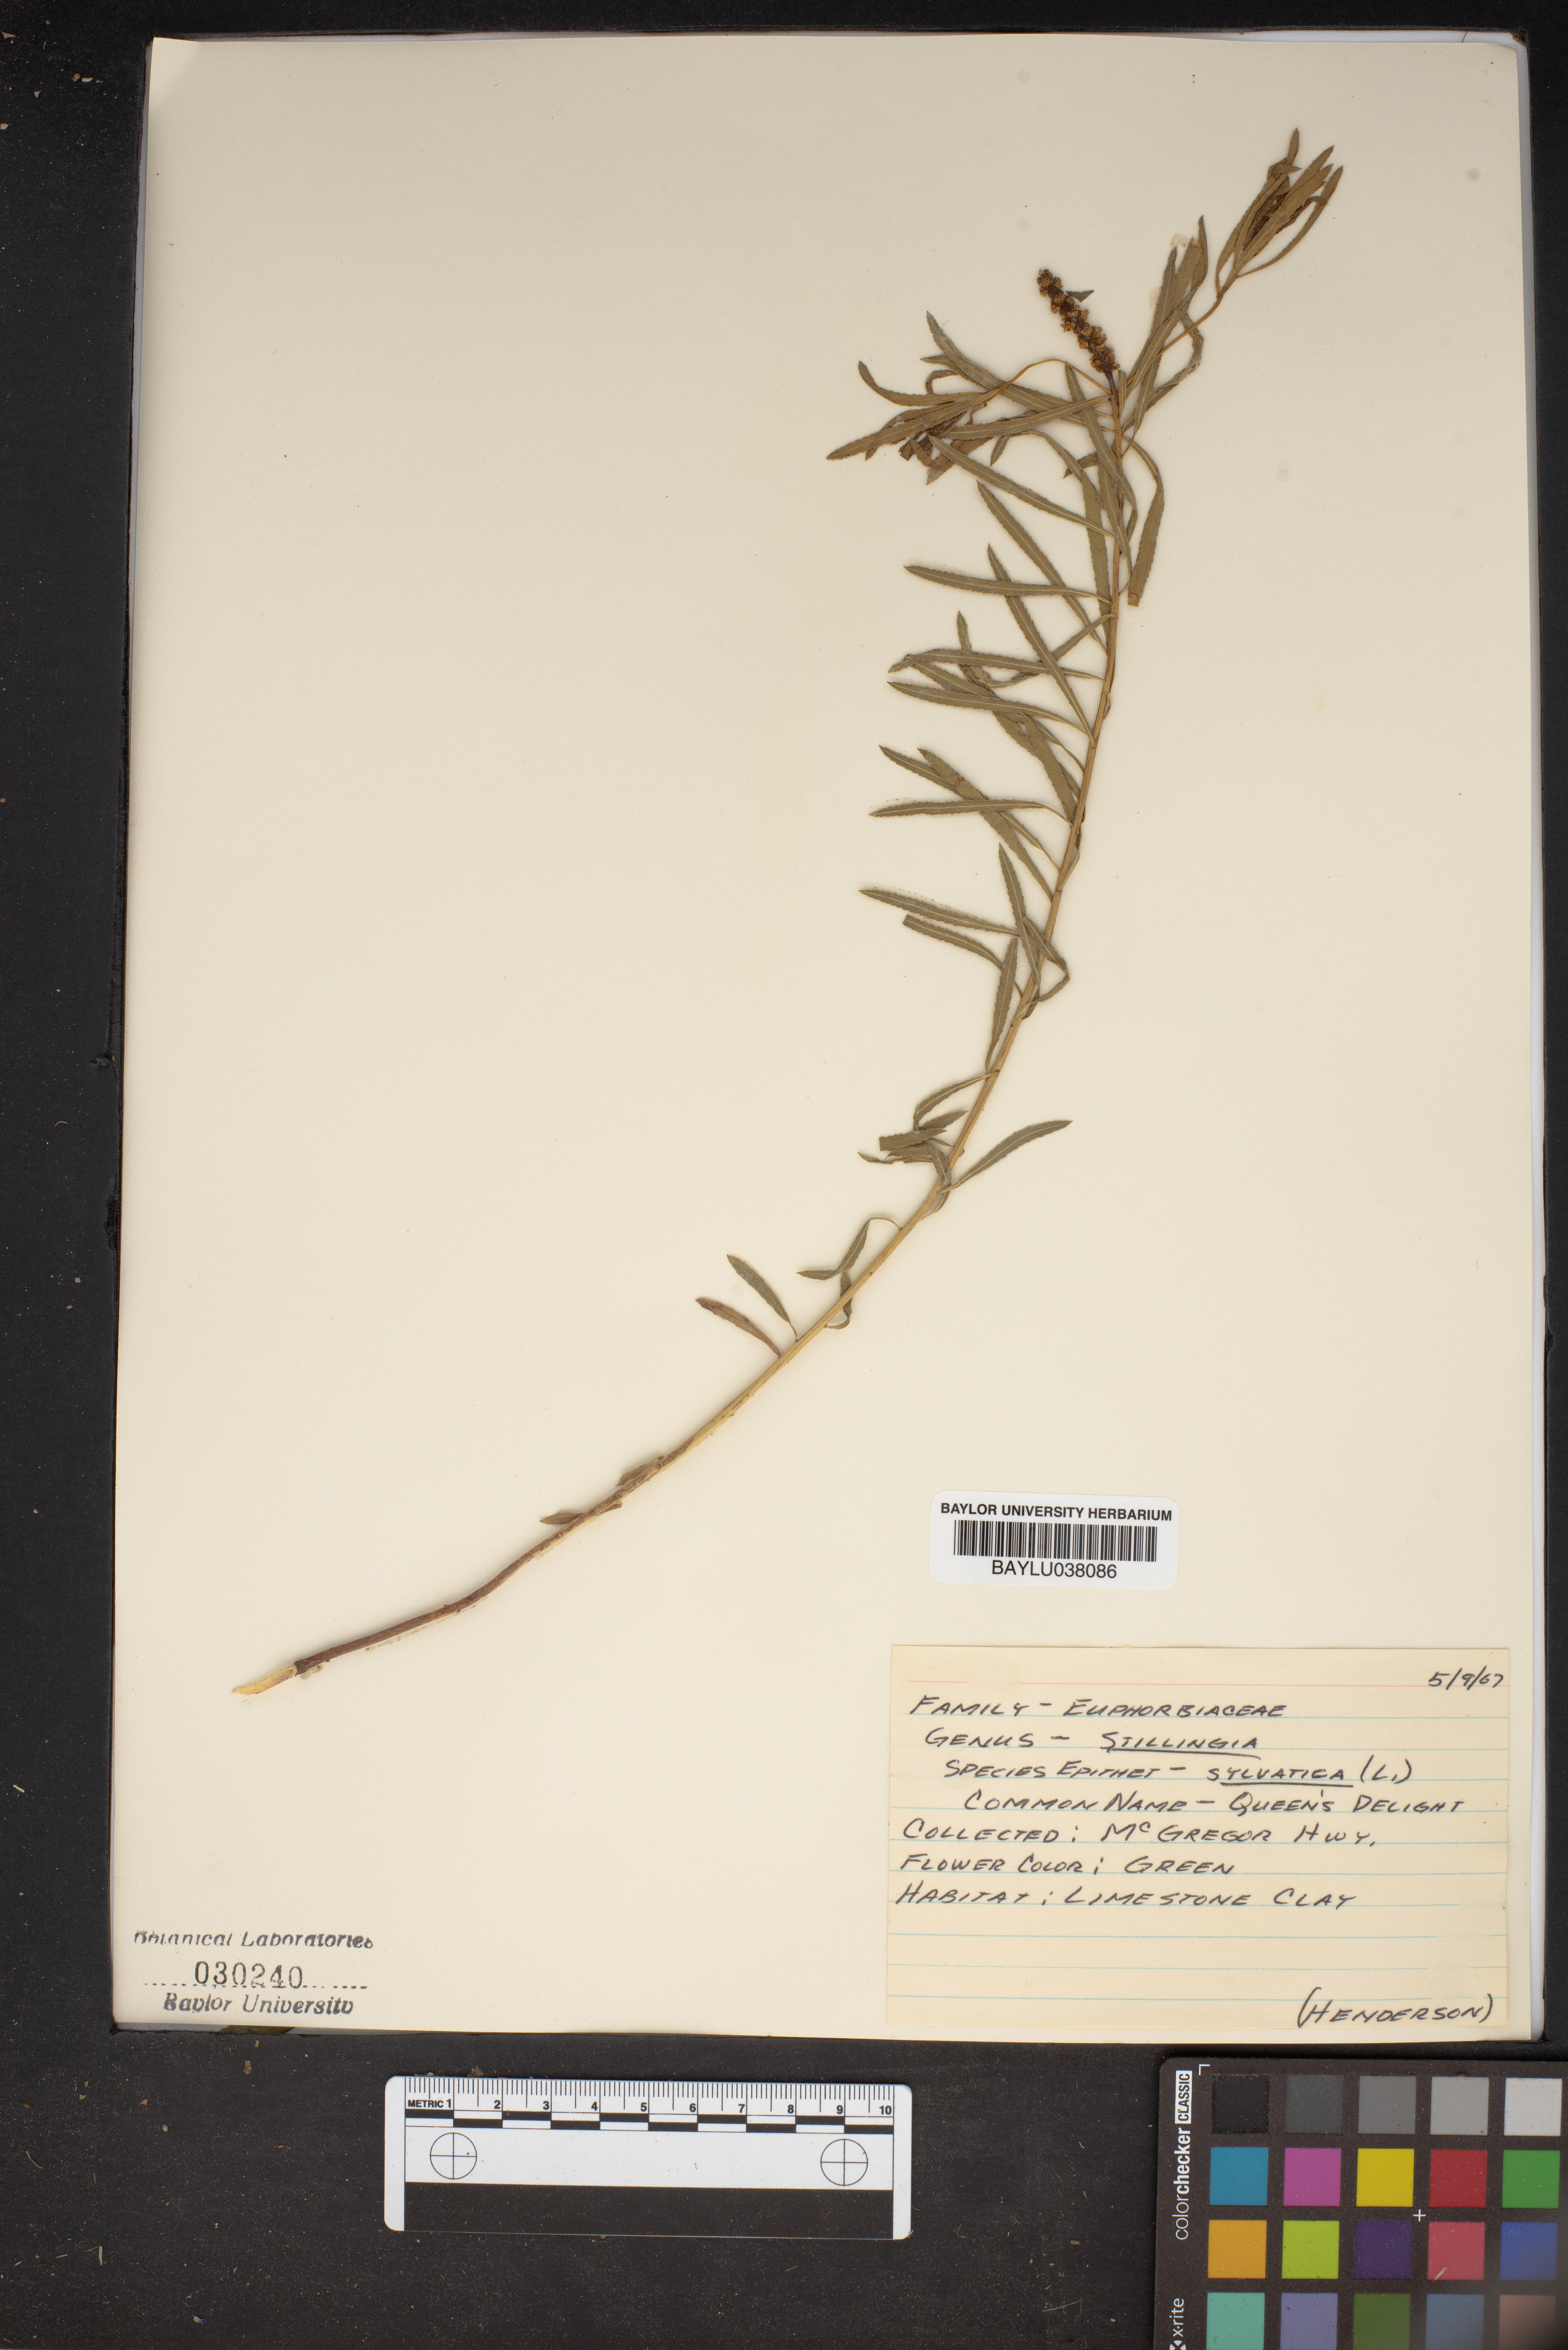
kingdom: Plantae
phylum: Tracheophyta
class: Magnoliopsida
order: Malpighiales
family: Euphorbiaceae
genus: Stillingia
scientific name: Stillingia sylvatica
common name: Queen's-delight
